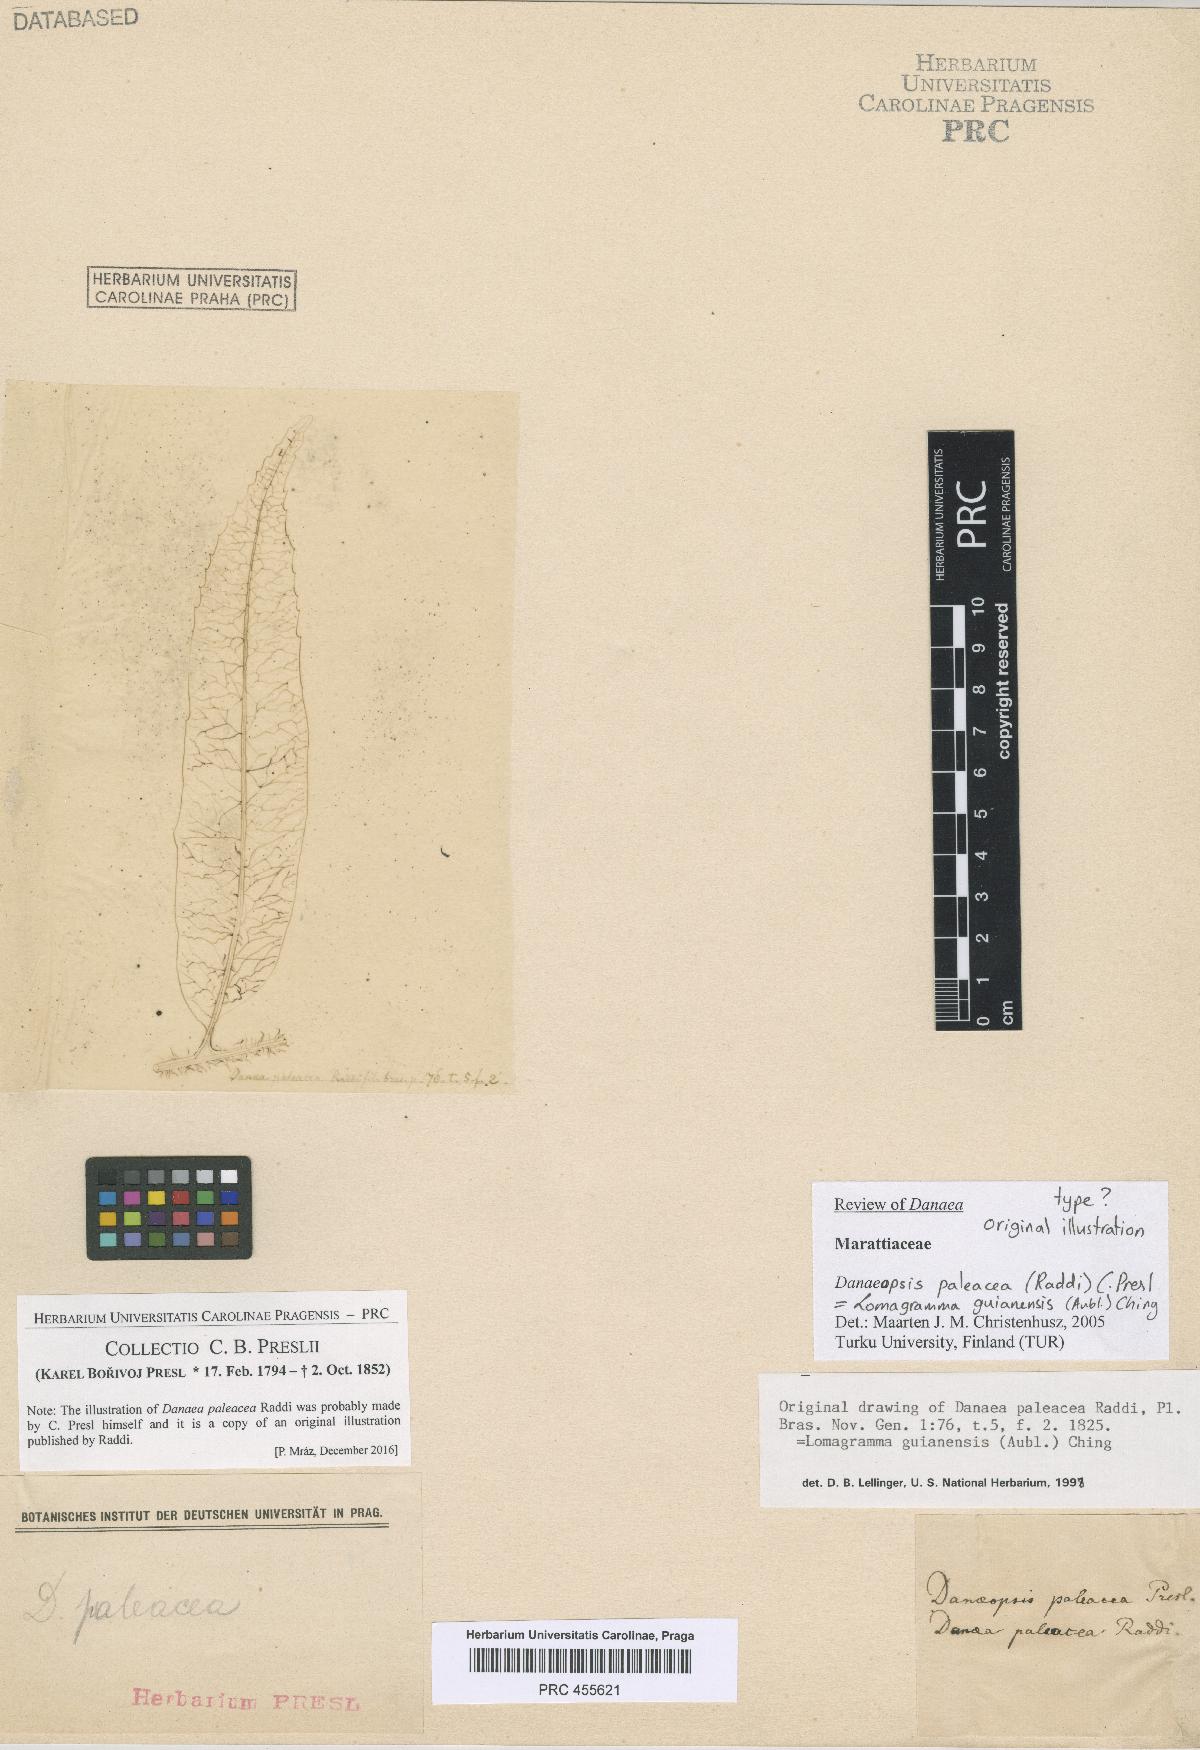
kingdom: Plantae
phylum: Tracheophyta
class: Polypodiopsida
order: Polypodiales
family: Dryopteridaceae
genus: Mickelia
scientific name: Mickelia guianensis
